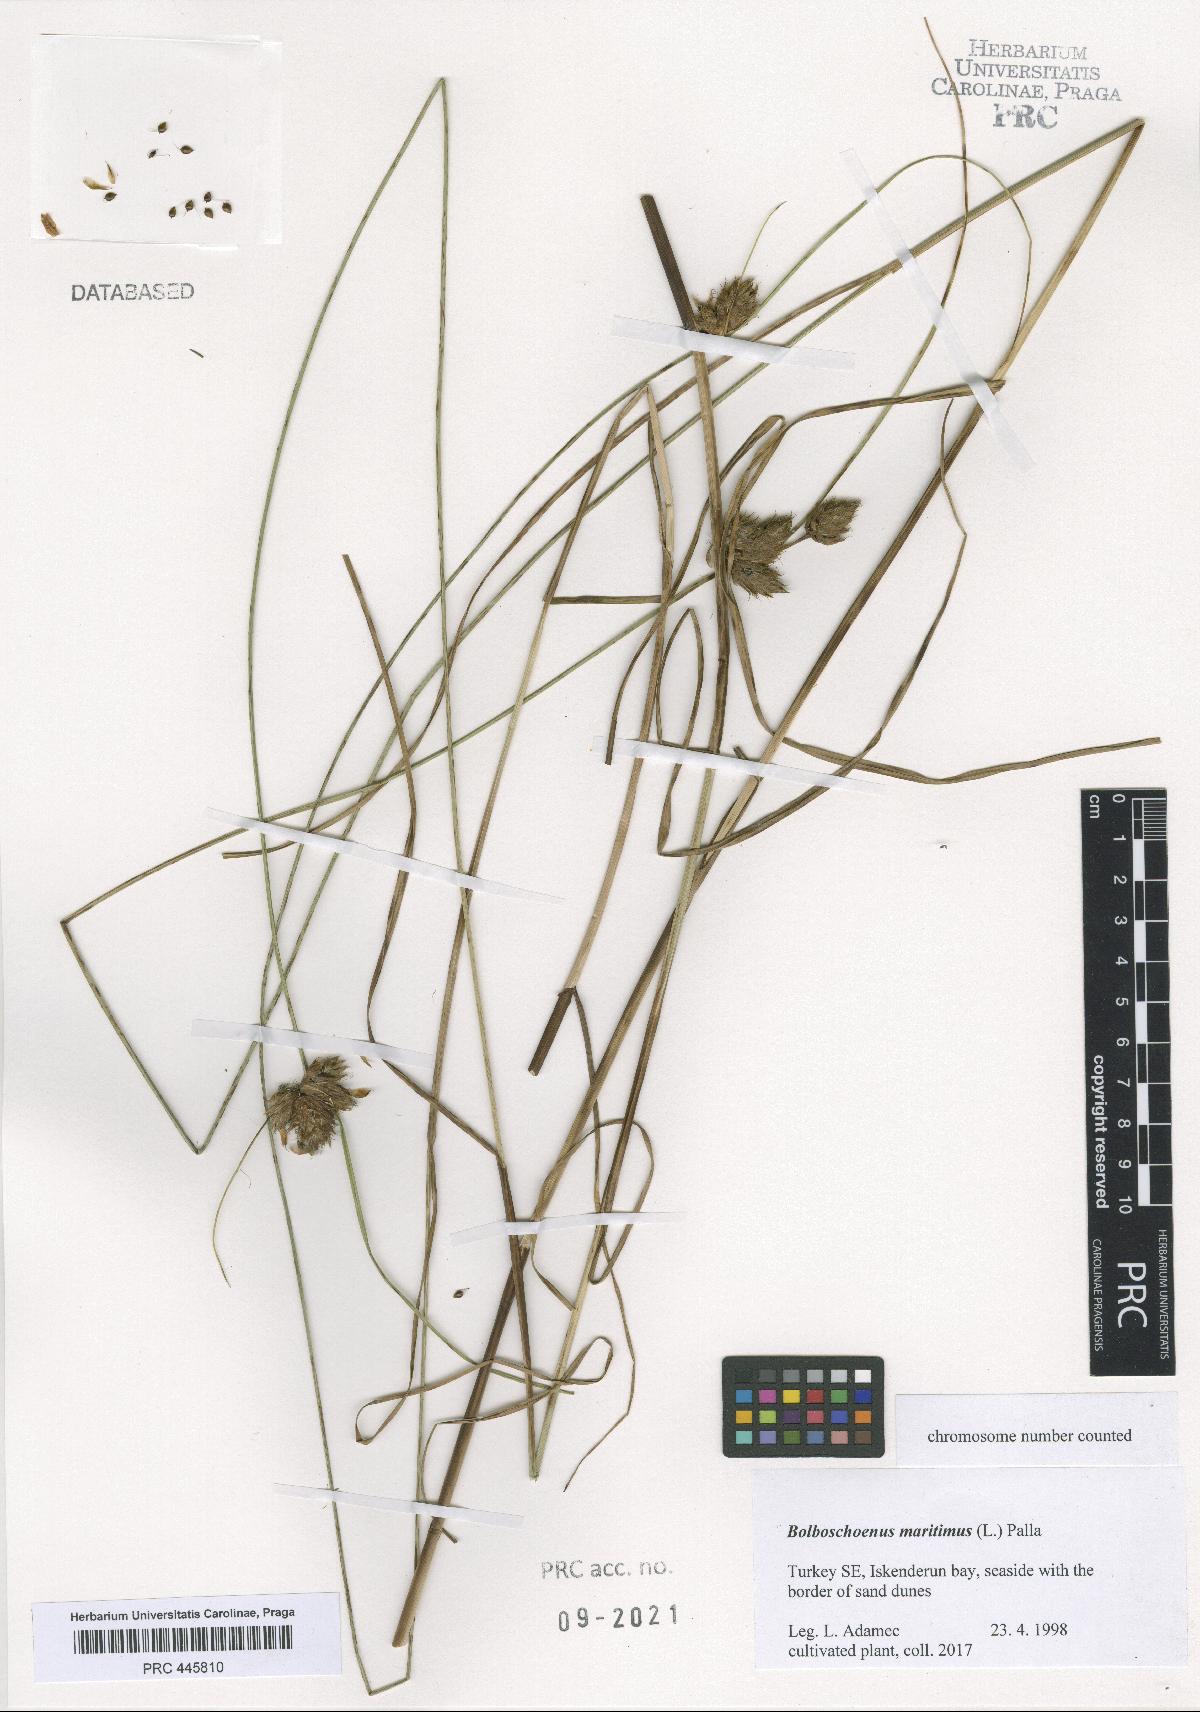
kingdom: Plantae
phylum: Tracheophyta
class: Liliopsida
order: Poales
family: Cyperaceae
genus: Bolboschoenus
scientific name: Bolboschoenus maritimus
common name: Sea club-rush
